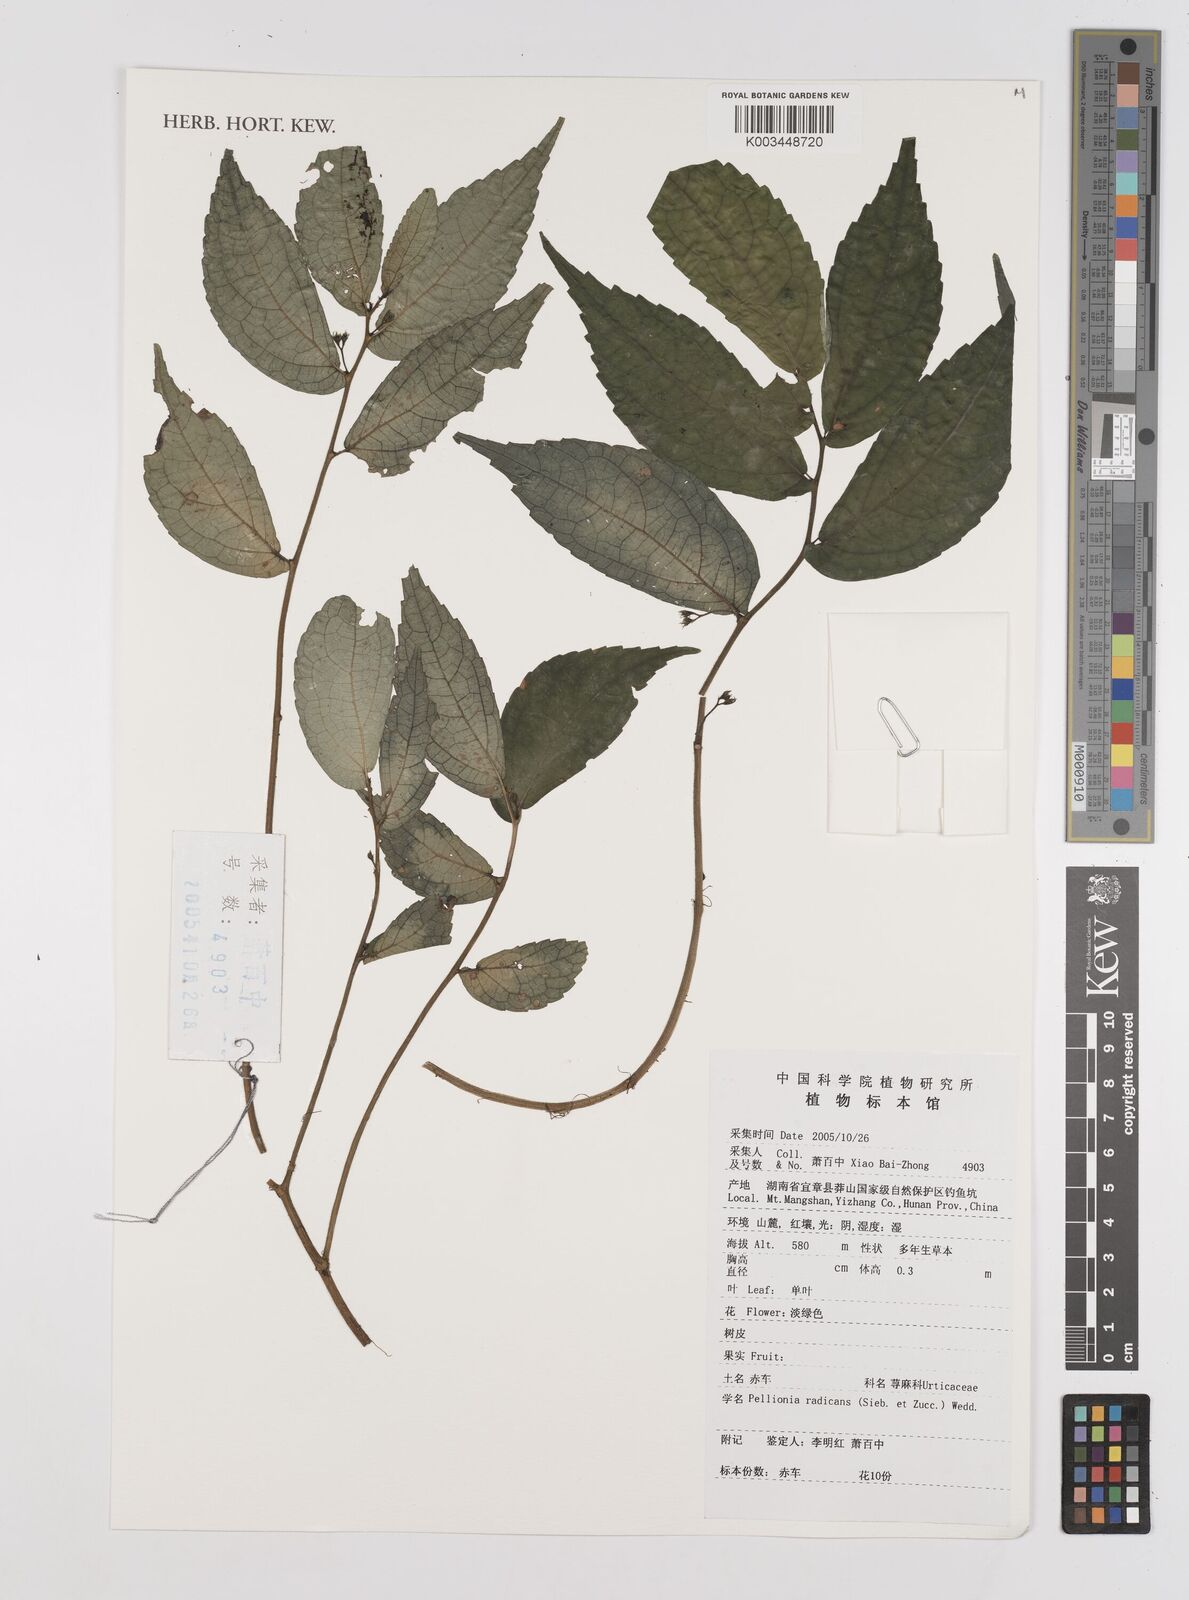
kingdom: Plantae
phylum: Tracheophyta
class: Magnoliopsida
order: Rosales
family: Urticaceae
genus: Elatostema
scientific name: Elatostema radicans
